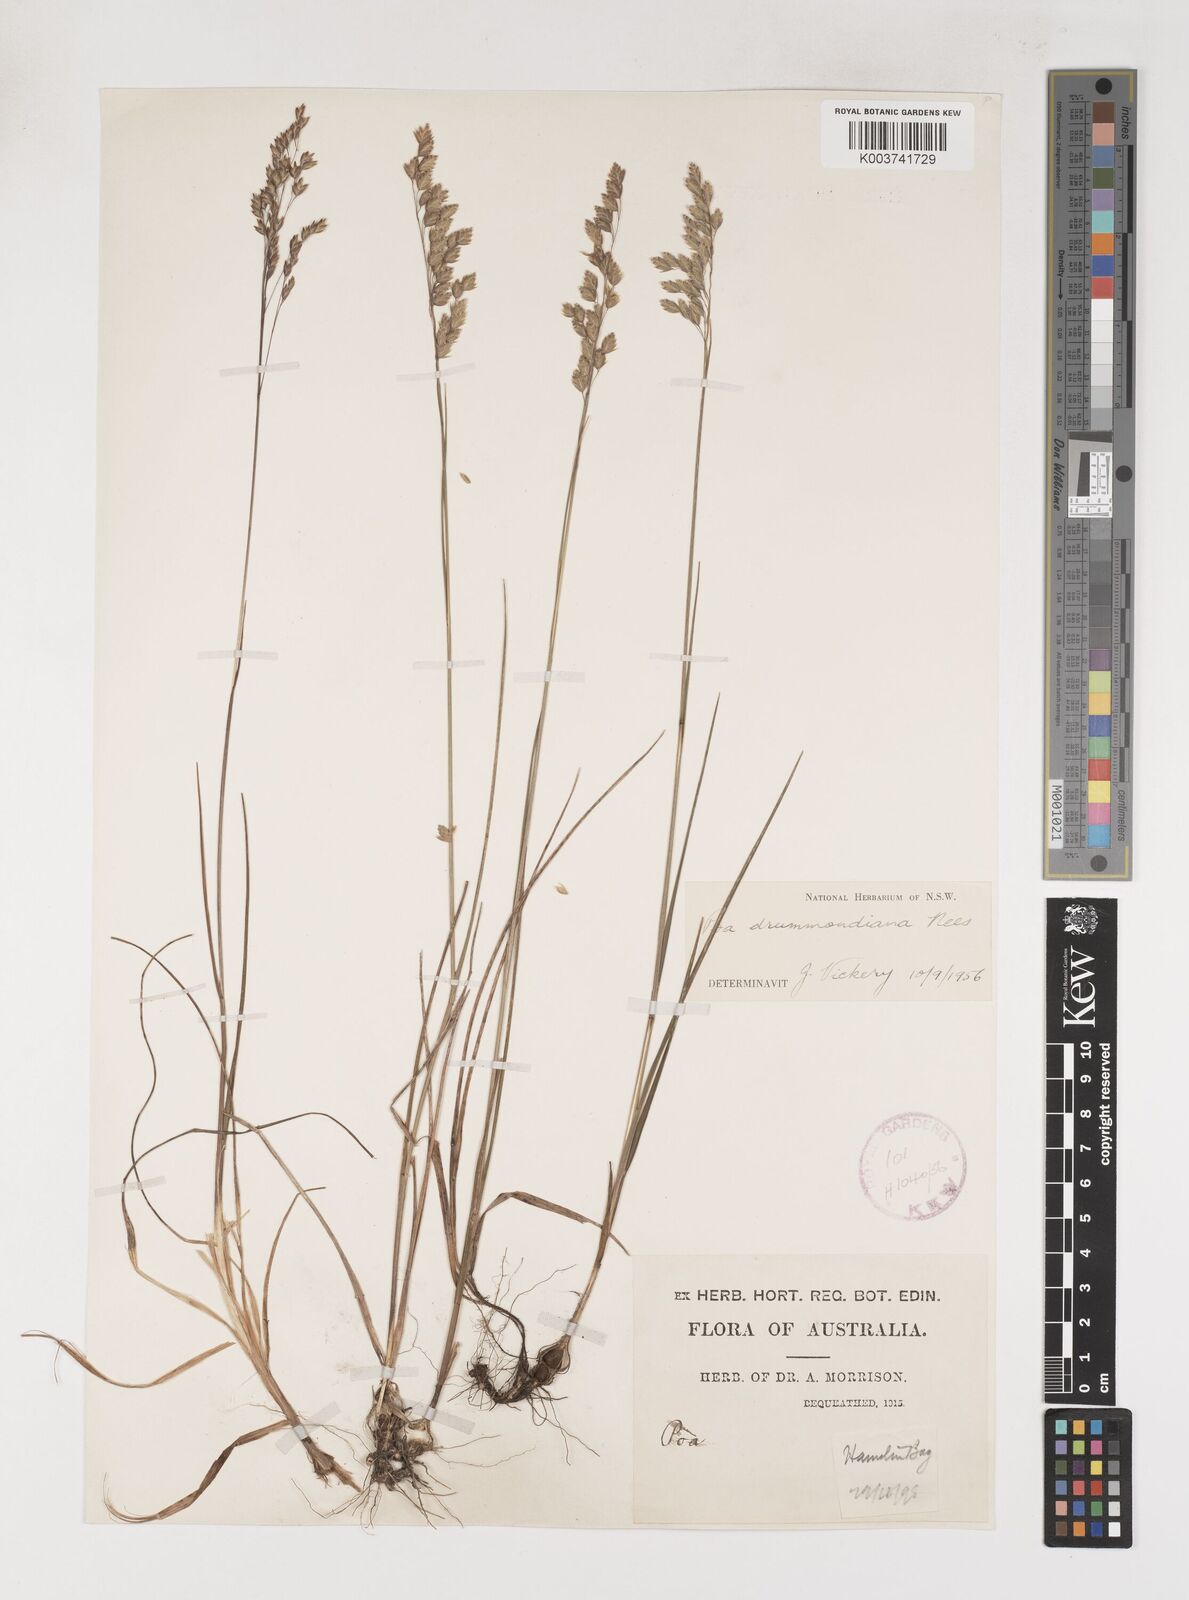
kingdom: Plantae
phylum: Tracheophyta
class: Liliopsida
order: Poales
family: Poaceae
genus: Poa
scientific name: Poa drummondiana
